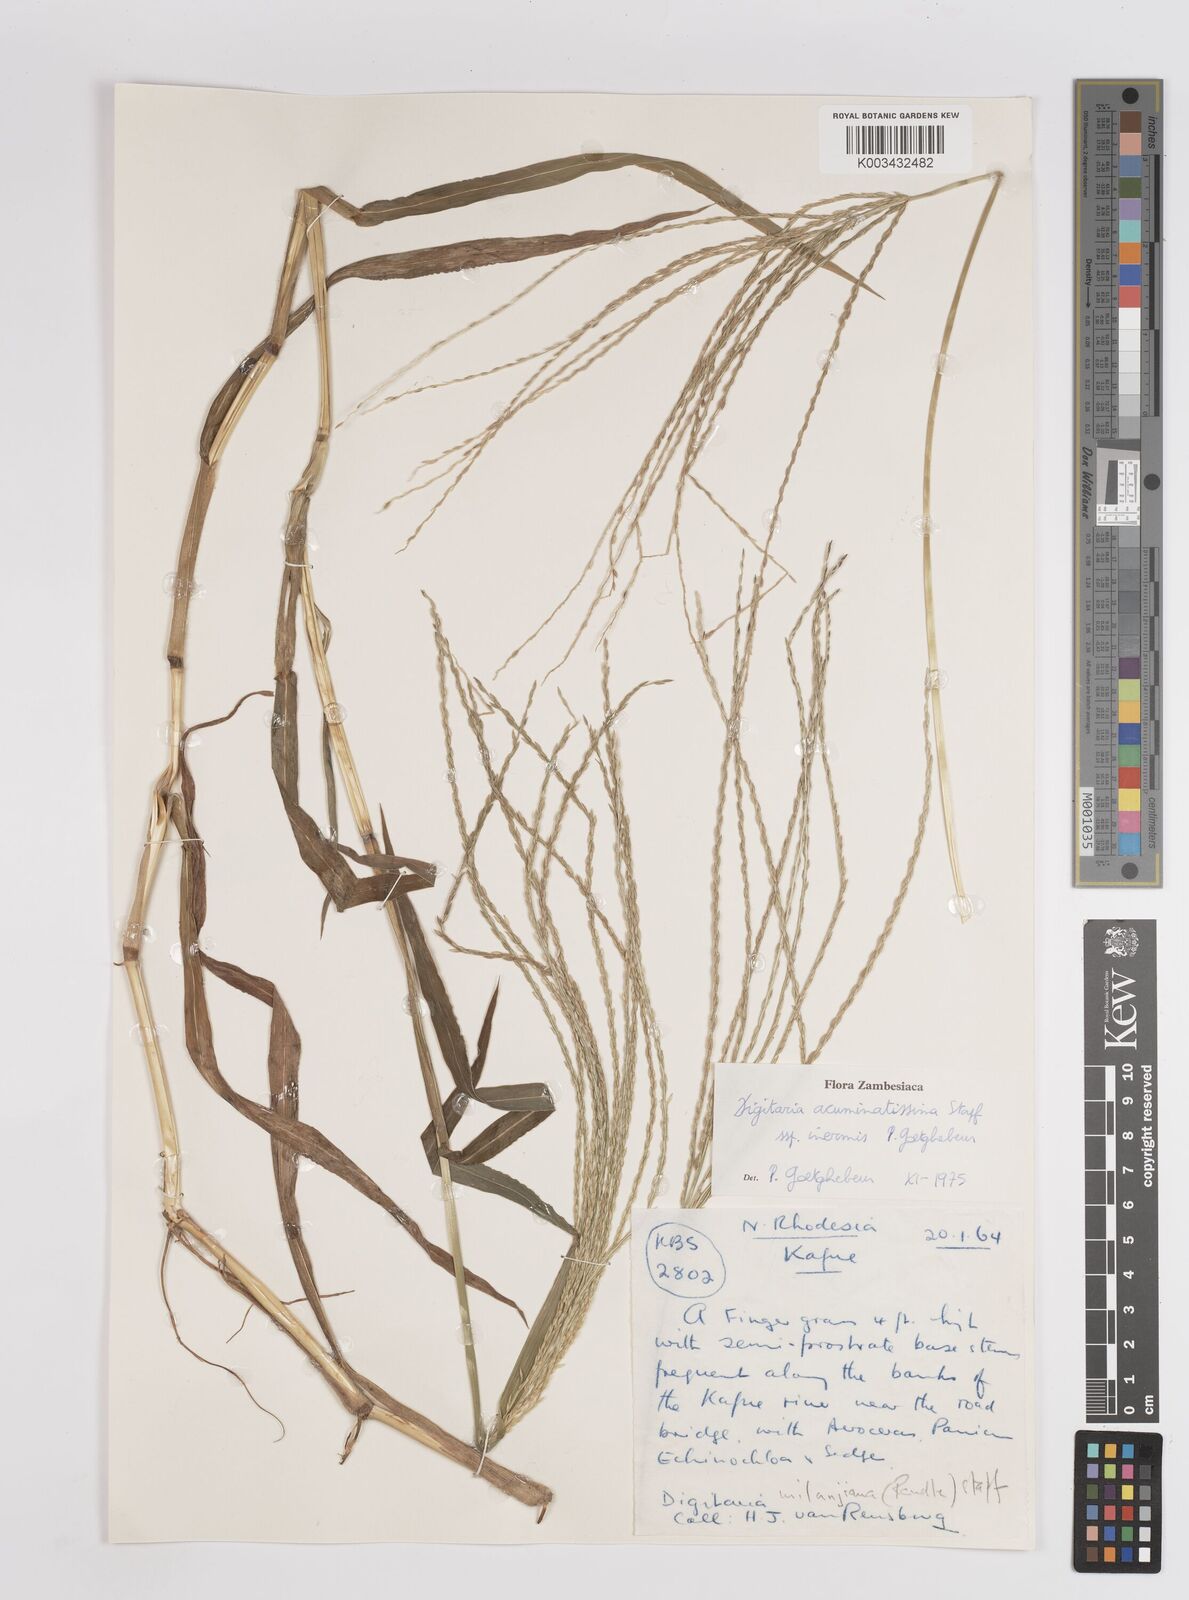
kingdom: Plantae
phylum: Tracheophyta
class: Liliopsida
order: Poales
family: Poaceae
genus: Digitaria
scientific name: Digitaria acuminatissima
